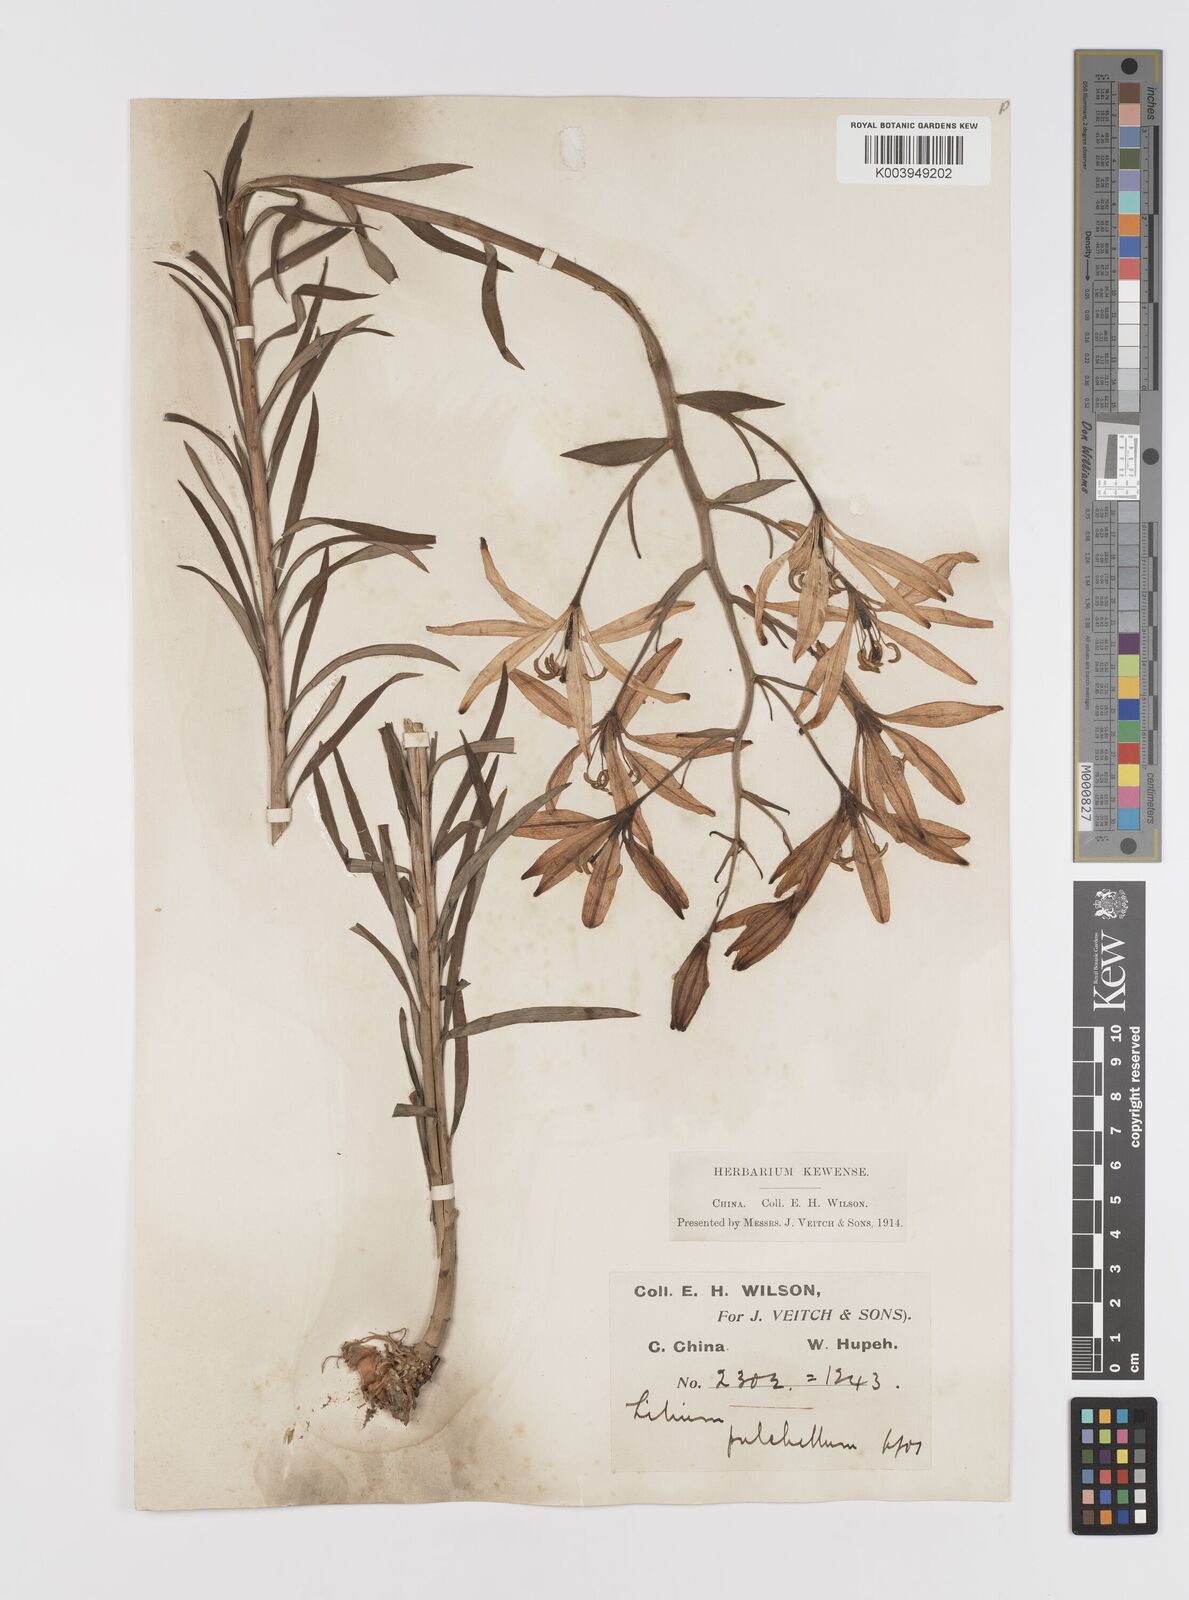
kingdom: Plantae
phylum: Tracheophyta
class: Liliopsida
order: Liliales
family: Liliaceae
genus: Lilium
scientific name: Lilium concolor
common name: Morning-star lily
